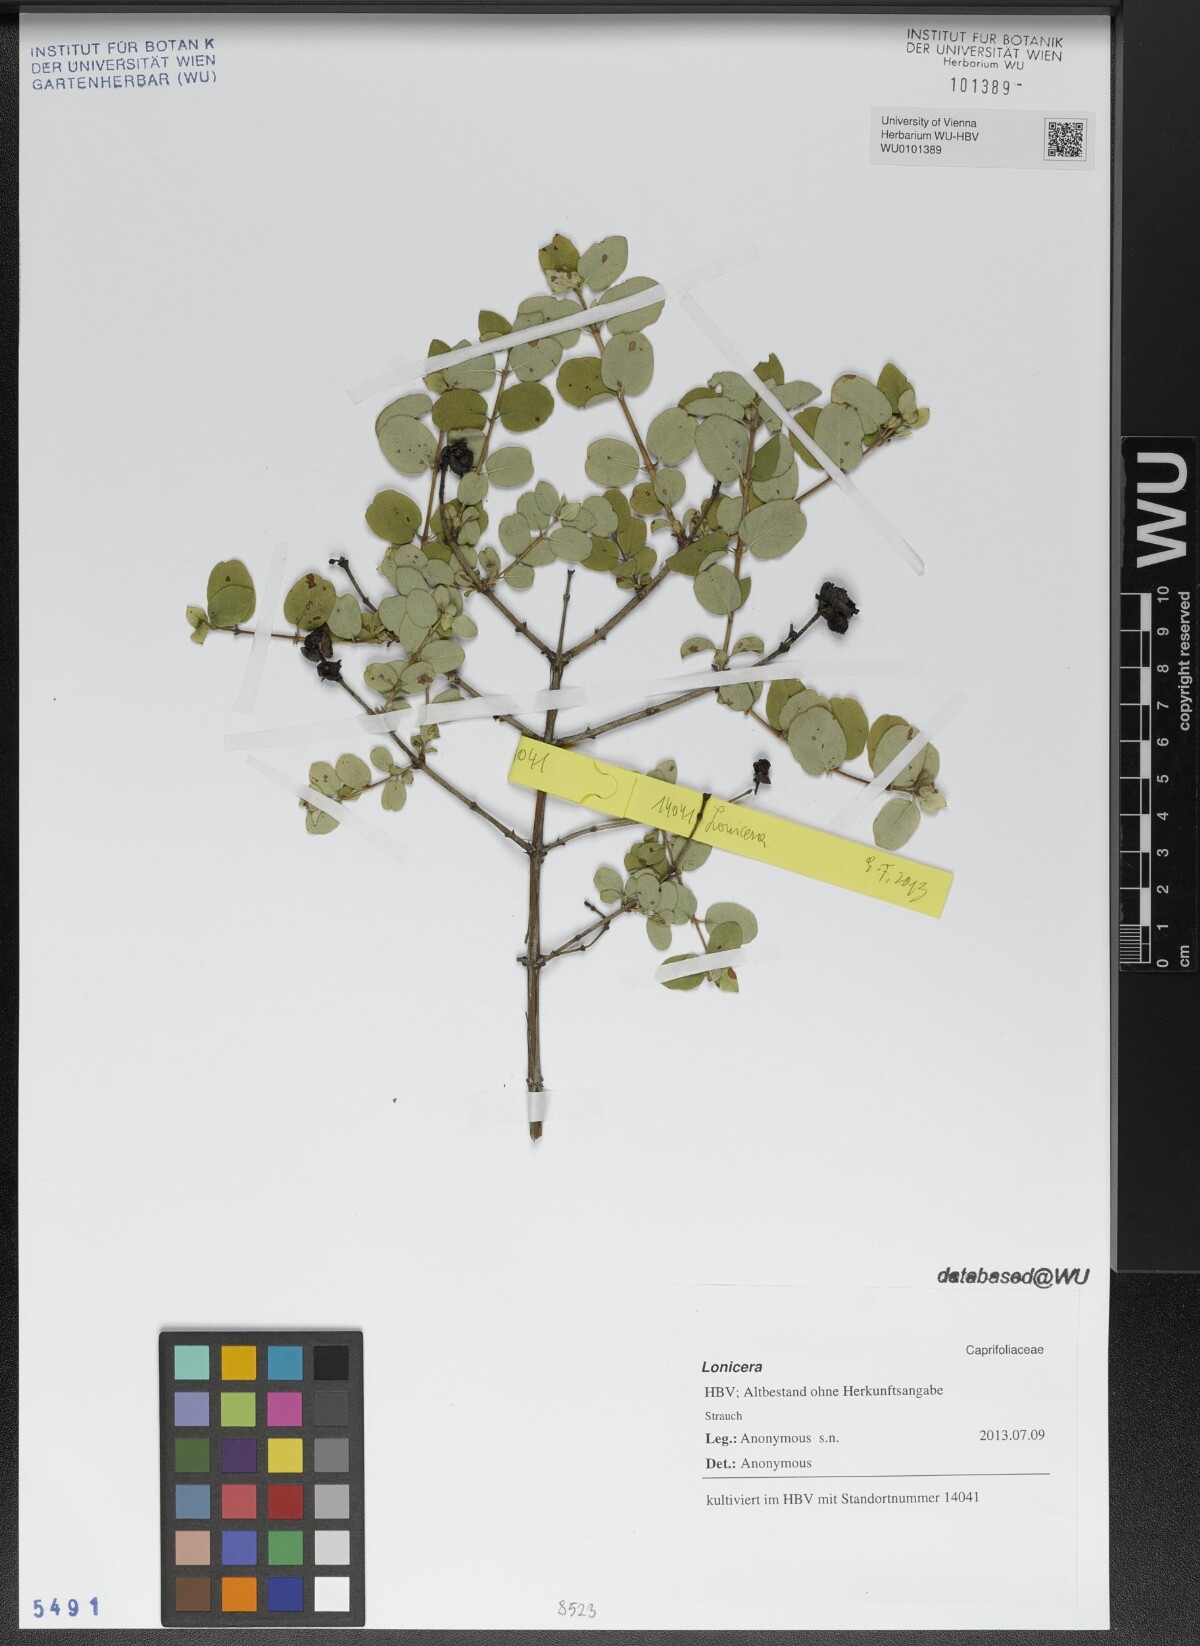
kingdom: Plantae
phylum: Tracheophyta
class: Magnoliopsida
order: Dipsacales
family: Caprifoliaceae
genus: Lonicera
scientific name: Lonicera
